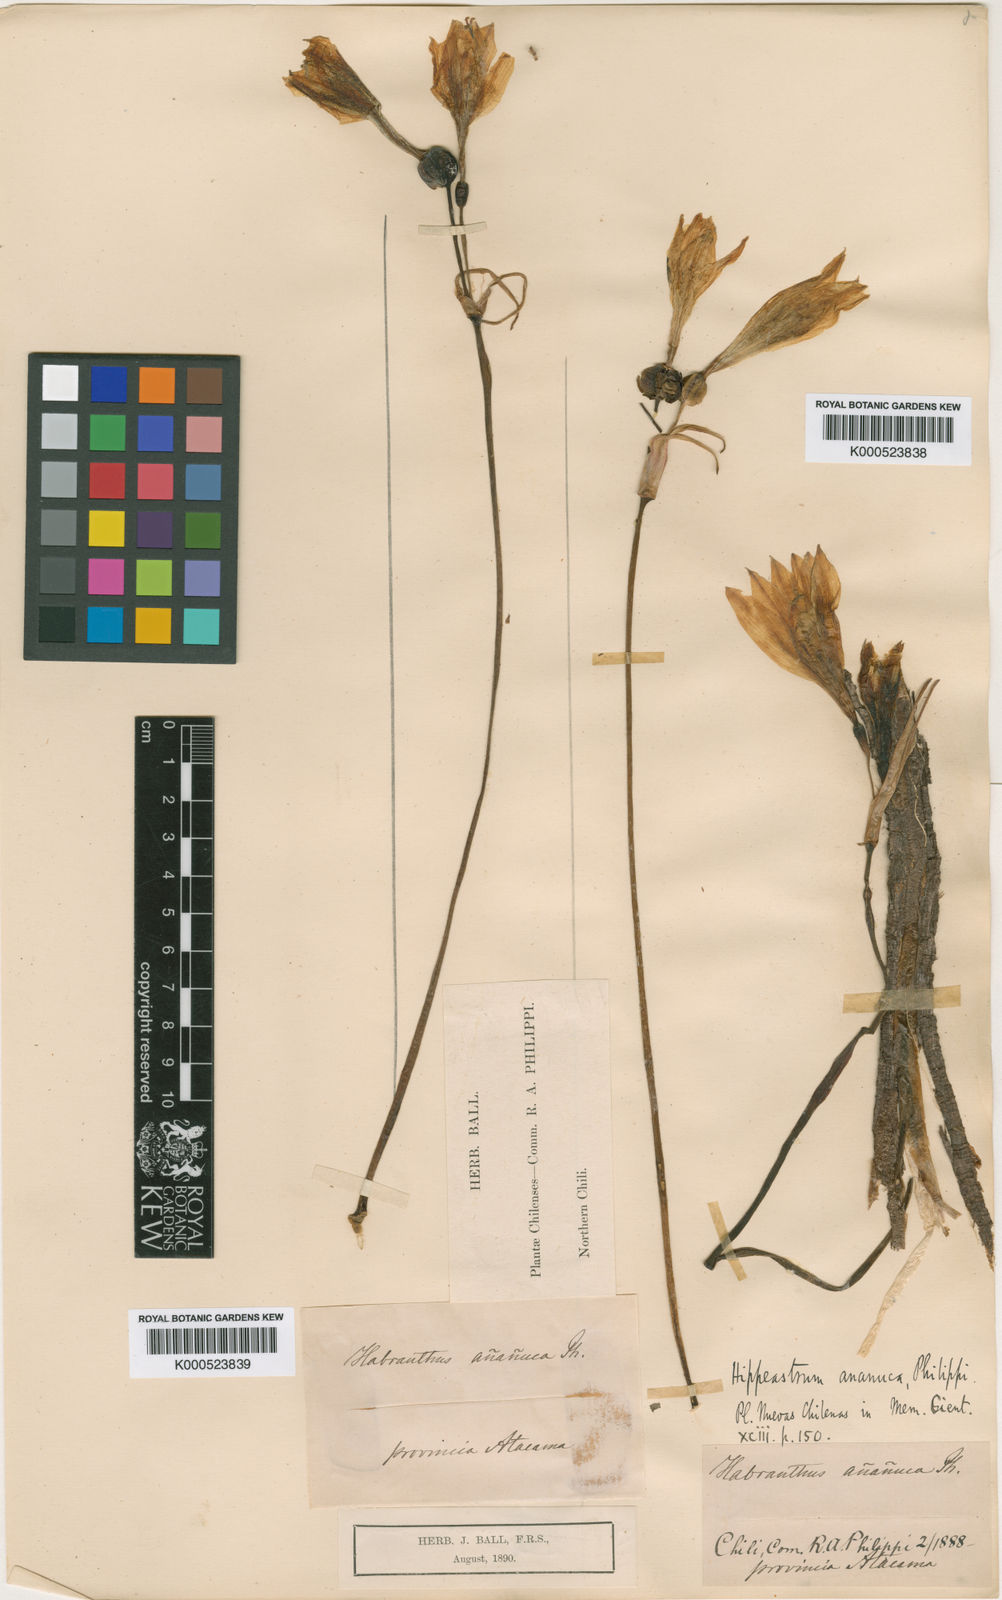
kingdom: Plantae
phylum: Tracheophyta
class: Liliopsida
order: Asparagales
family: Amaryllidaceae
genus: Zephyranthes
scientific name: Zephyranthes ananuca
